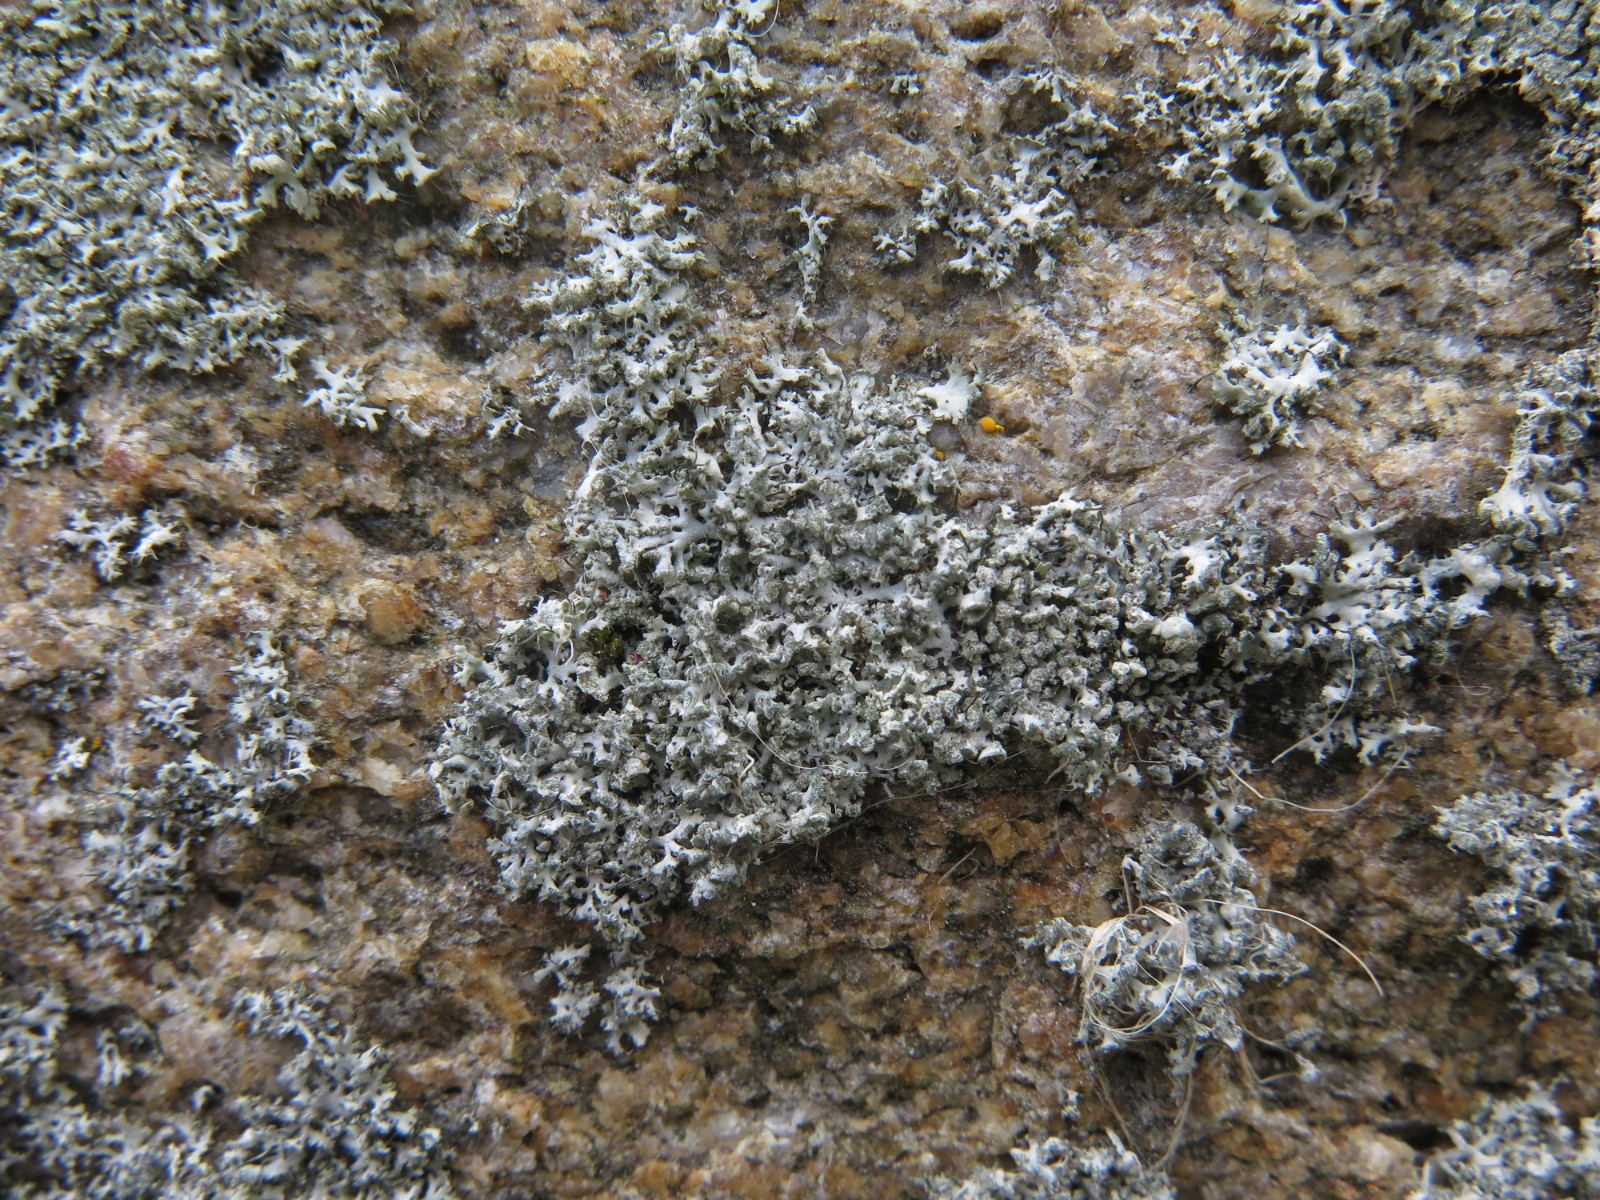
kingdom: Fungi
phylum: Ascomycota
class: Lecanoromycetes
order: Caliciales
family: Physciaceae
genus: Physcia
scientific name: Physcia adscendens
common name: hætte-rosetlav
